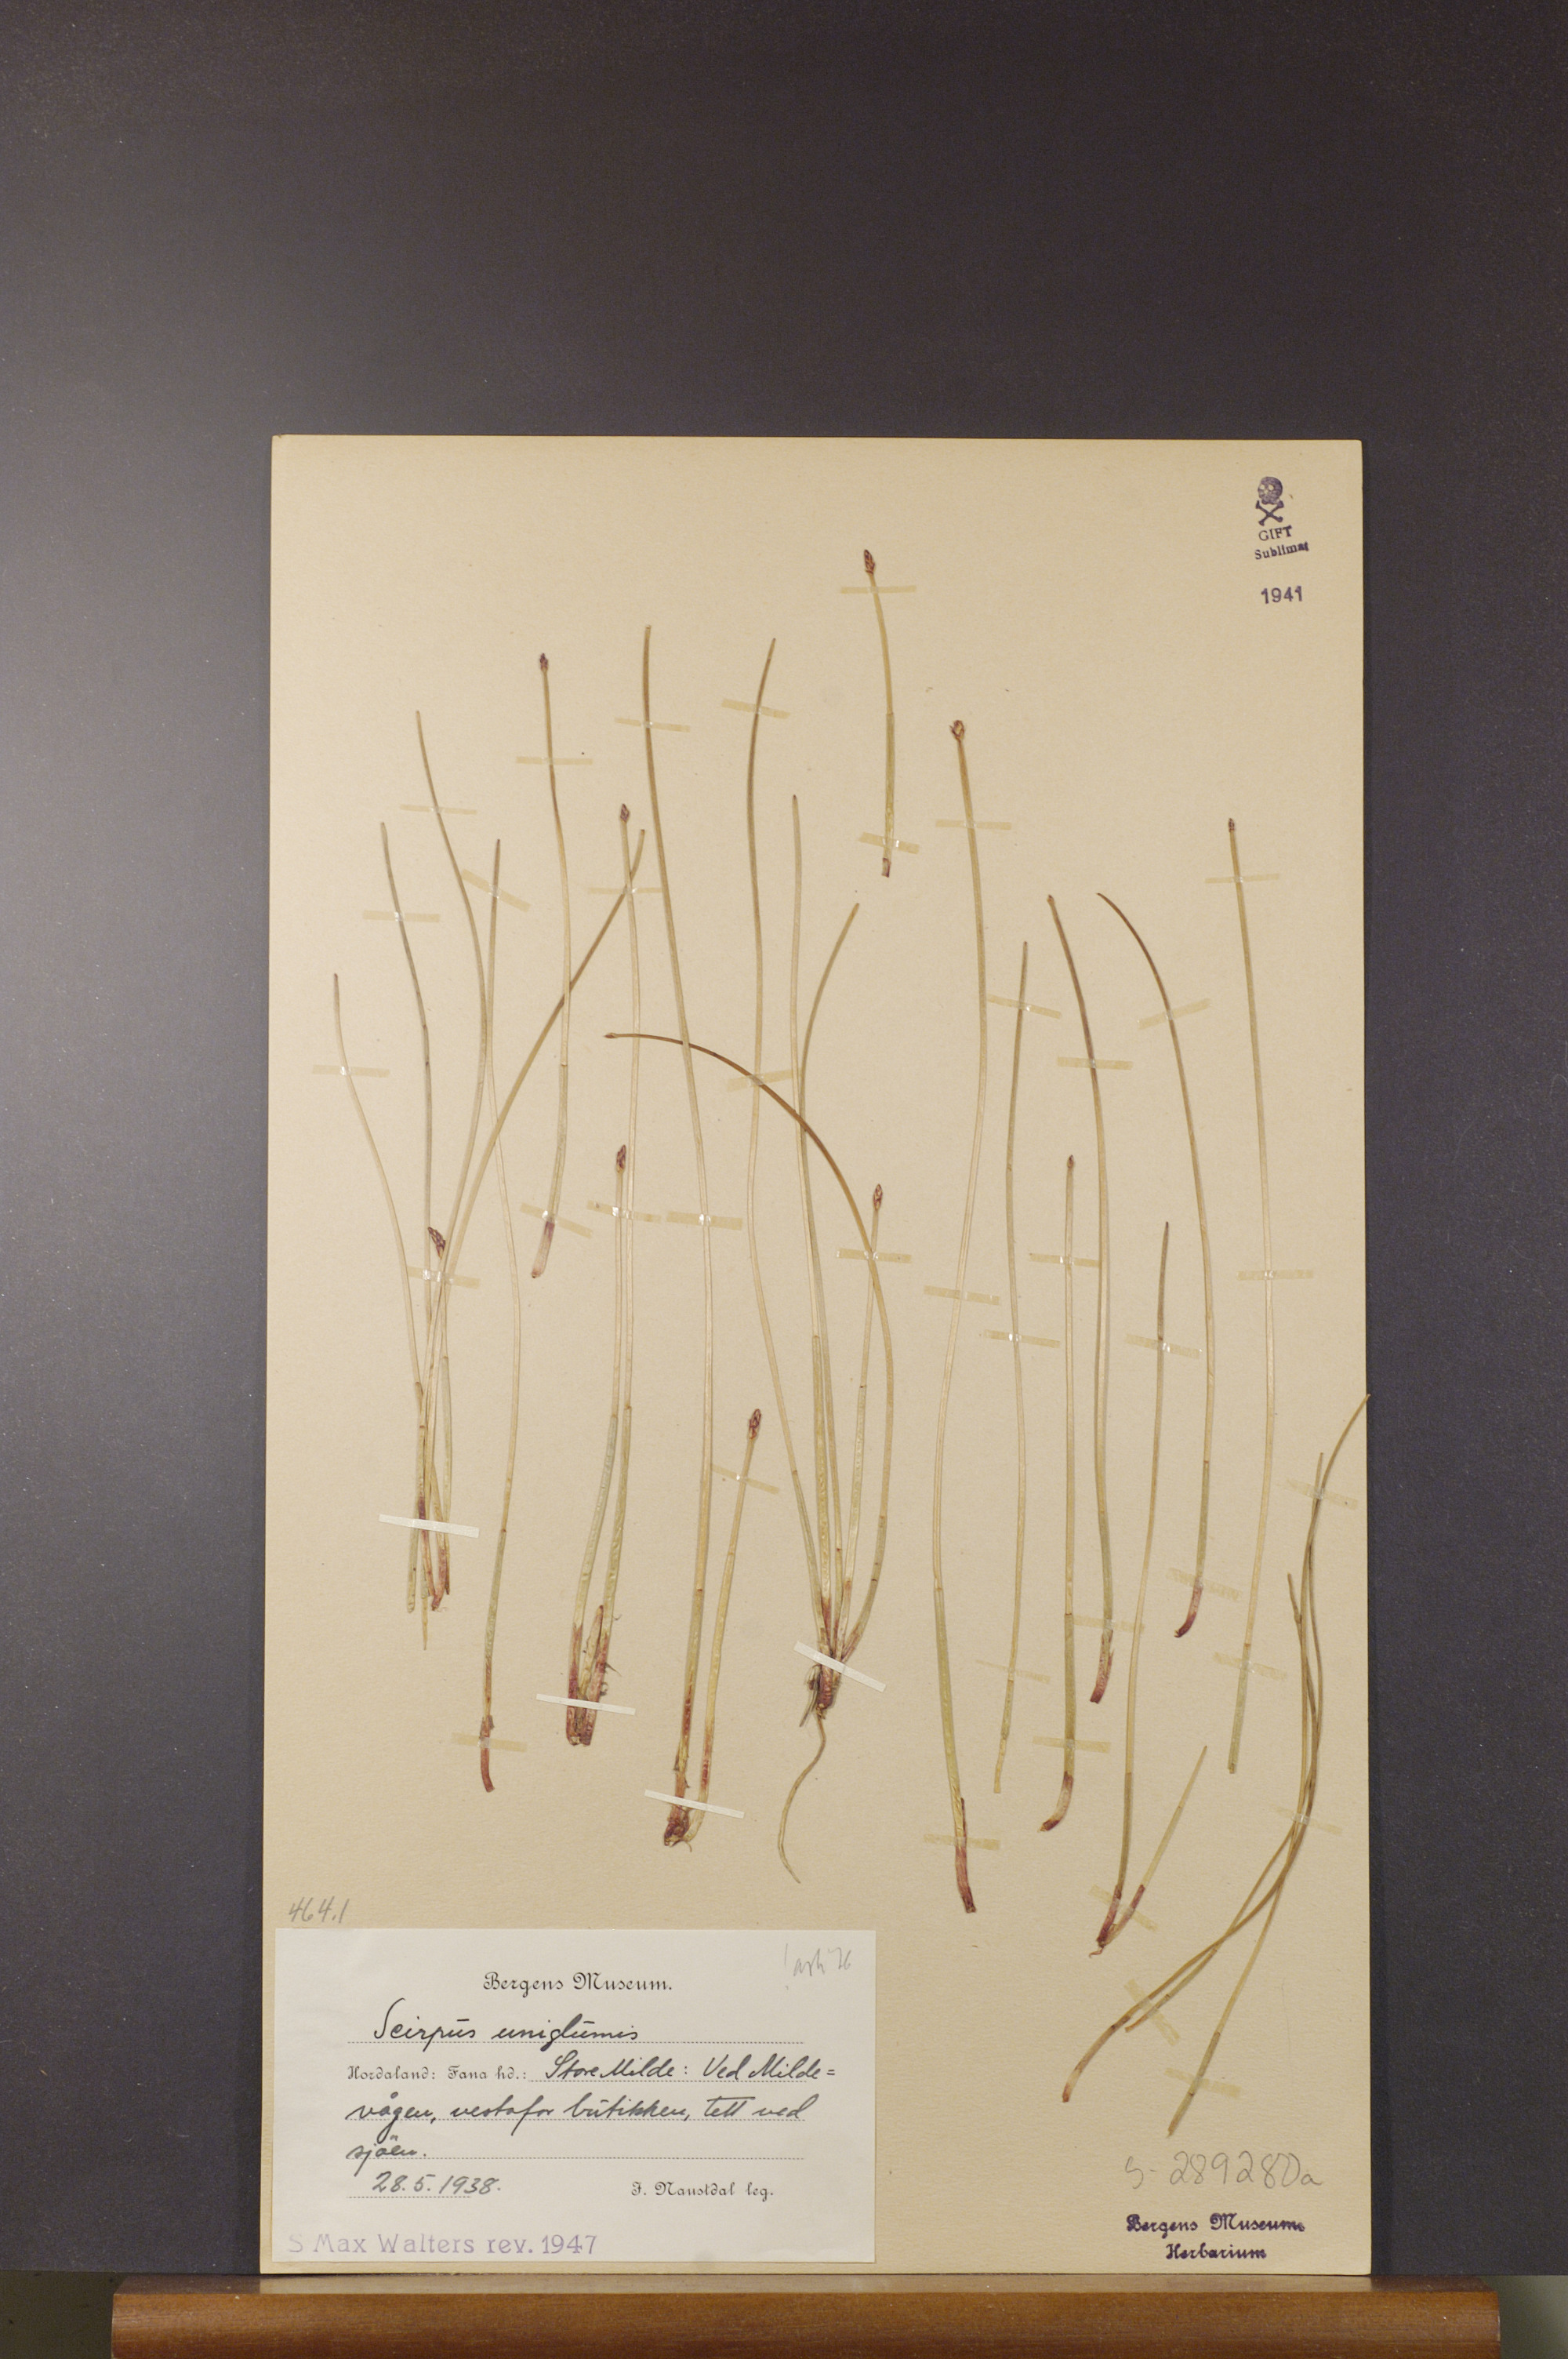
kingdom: Plantae
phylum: Tracheophyta
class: Liliopsida
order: Poales
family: Cyperaceae
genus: Eleocharis
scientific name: Eleocharis uniglumis
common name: Slender spike-rush
